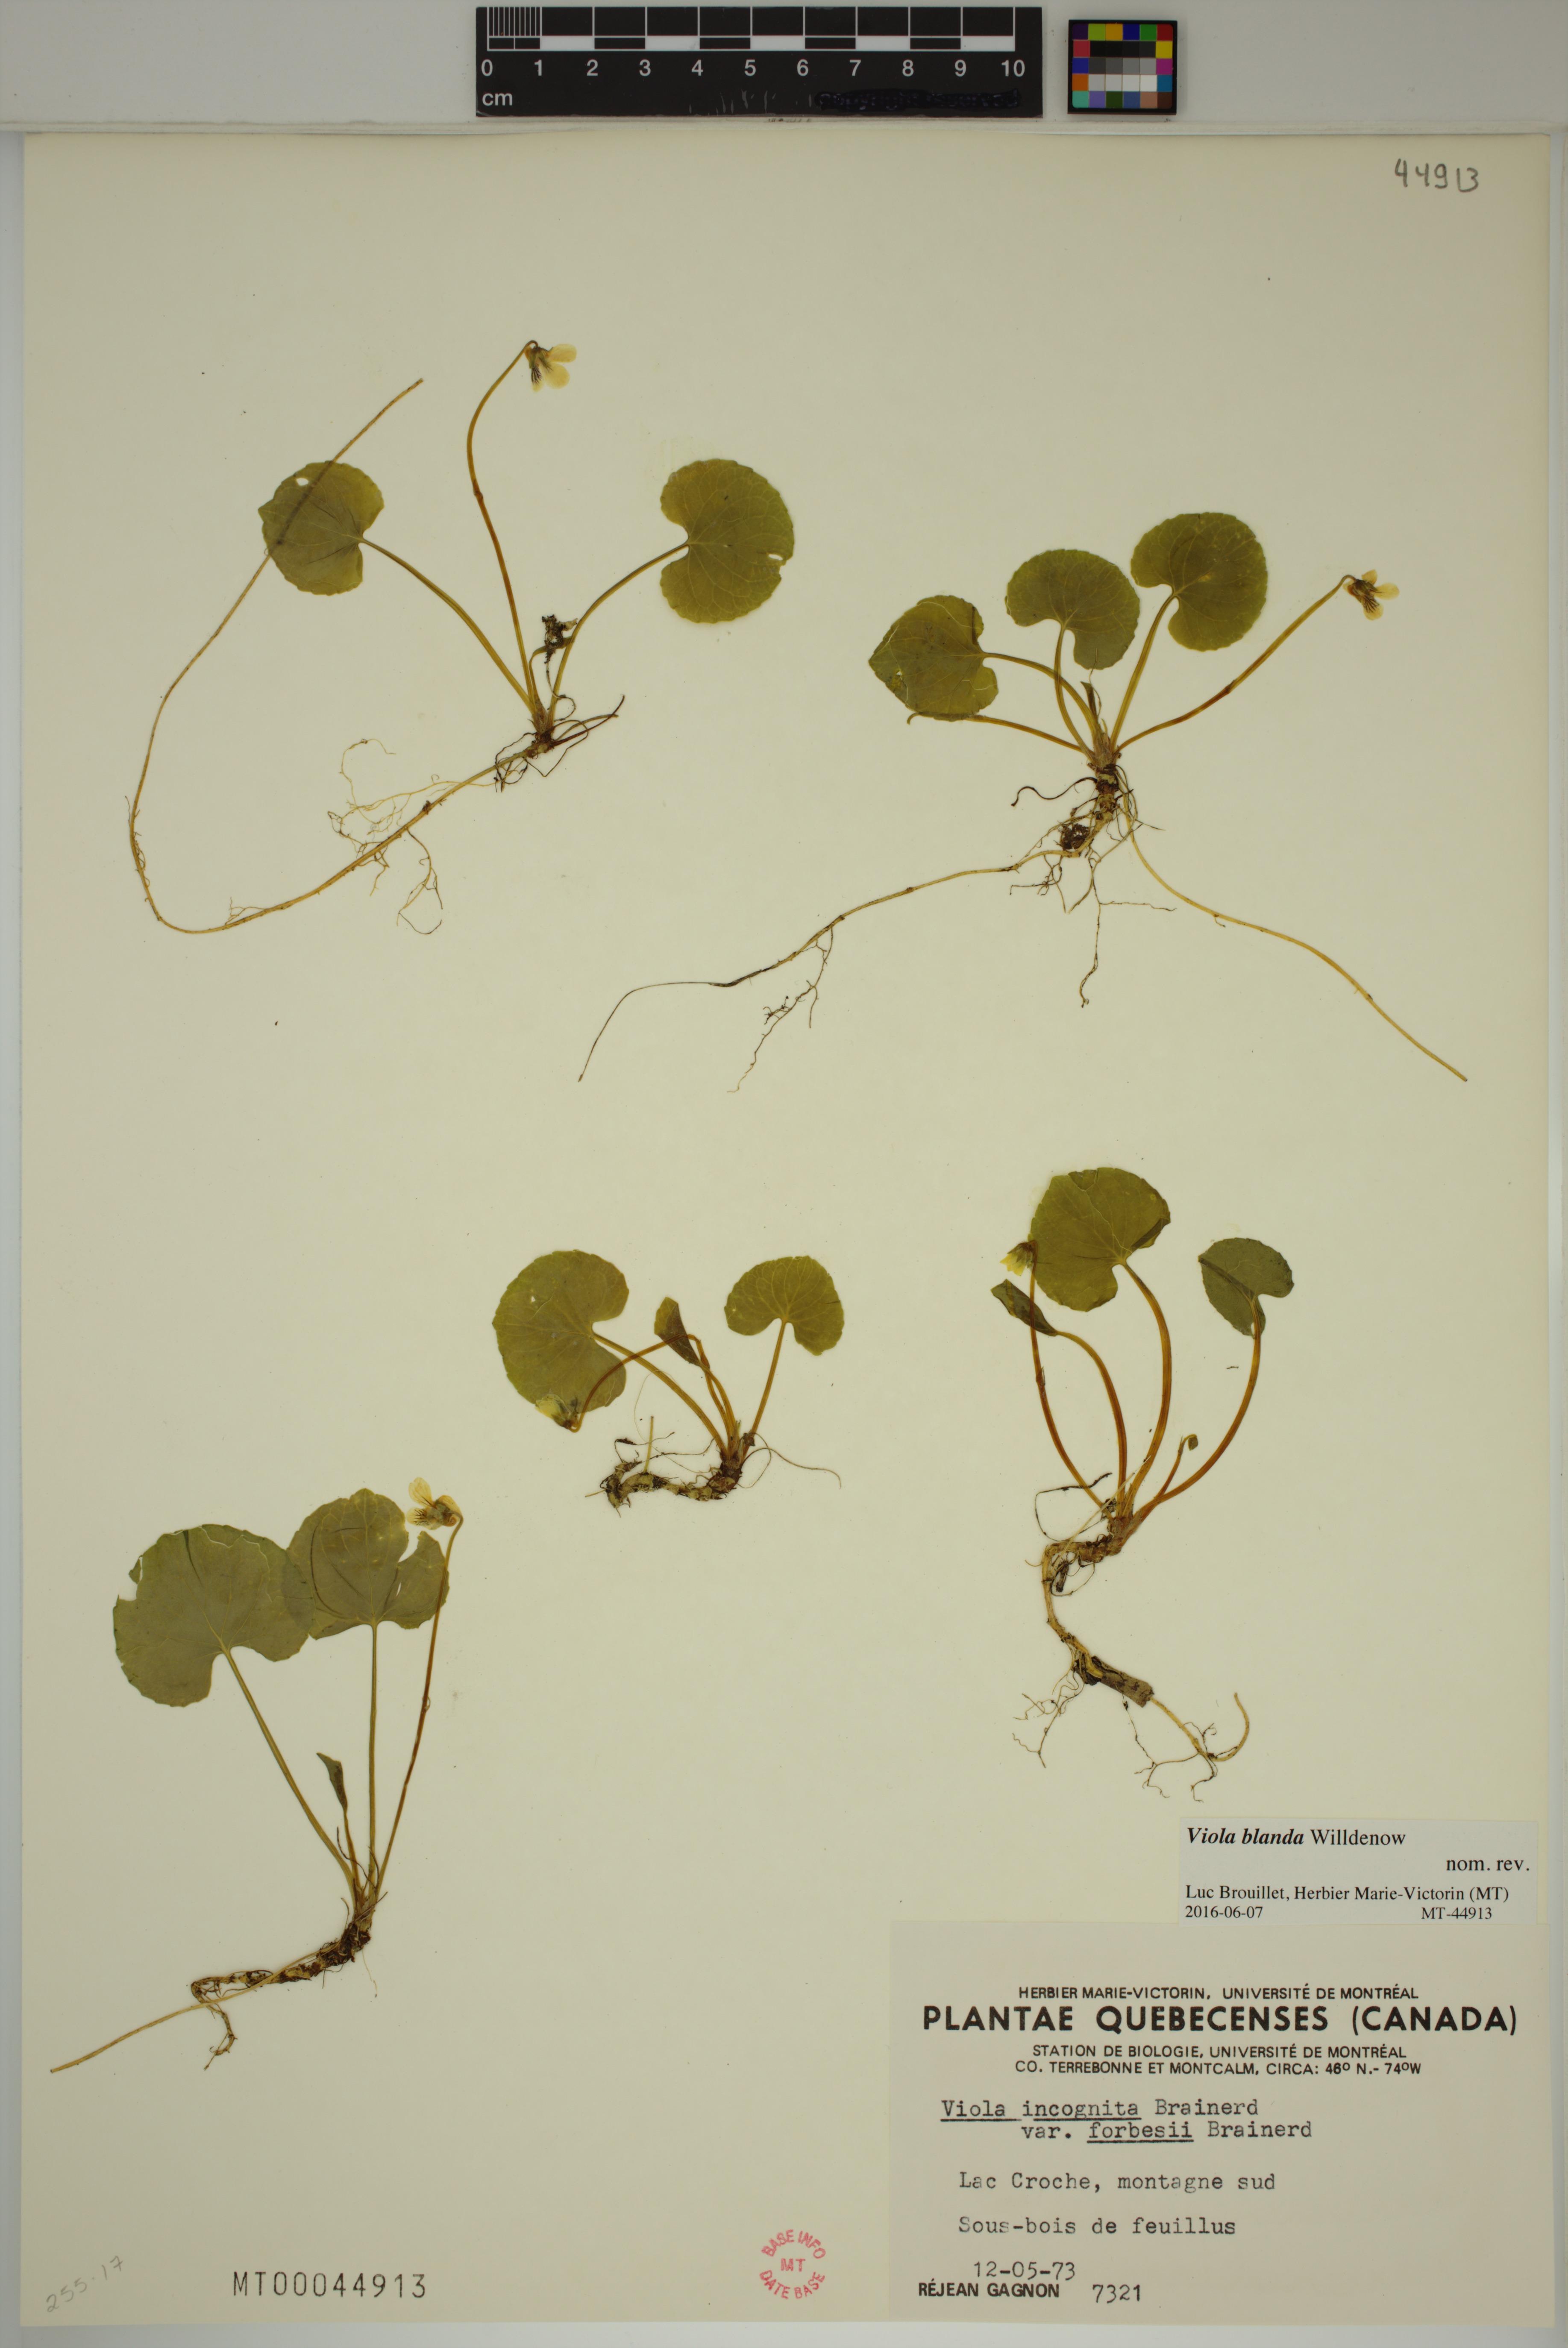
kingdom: Plantae
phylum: Tracheophyta
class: Magnoliopsida
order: Malpighiales
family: Violaceae
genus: Viola
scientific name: Viola blanda
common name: Sweet white violet
